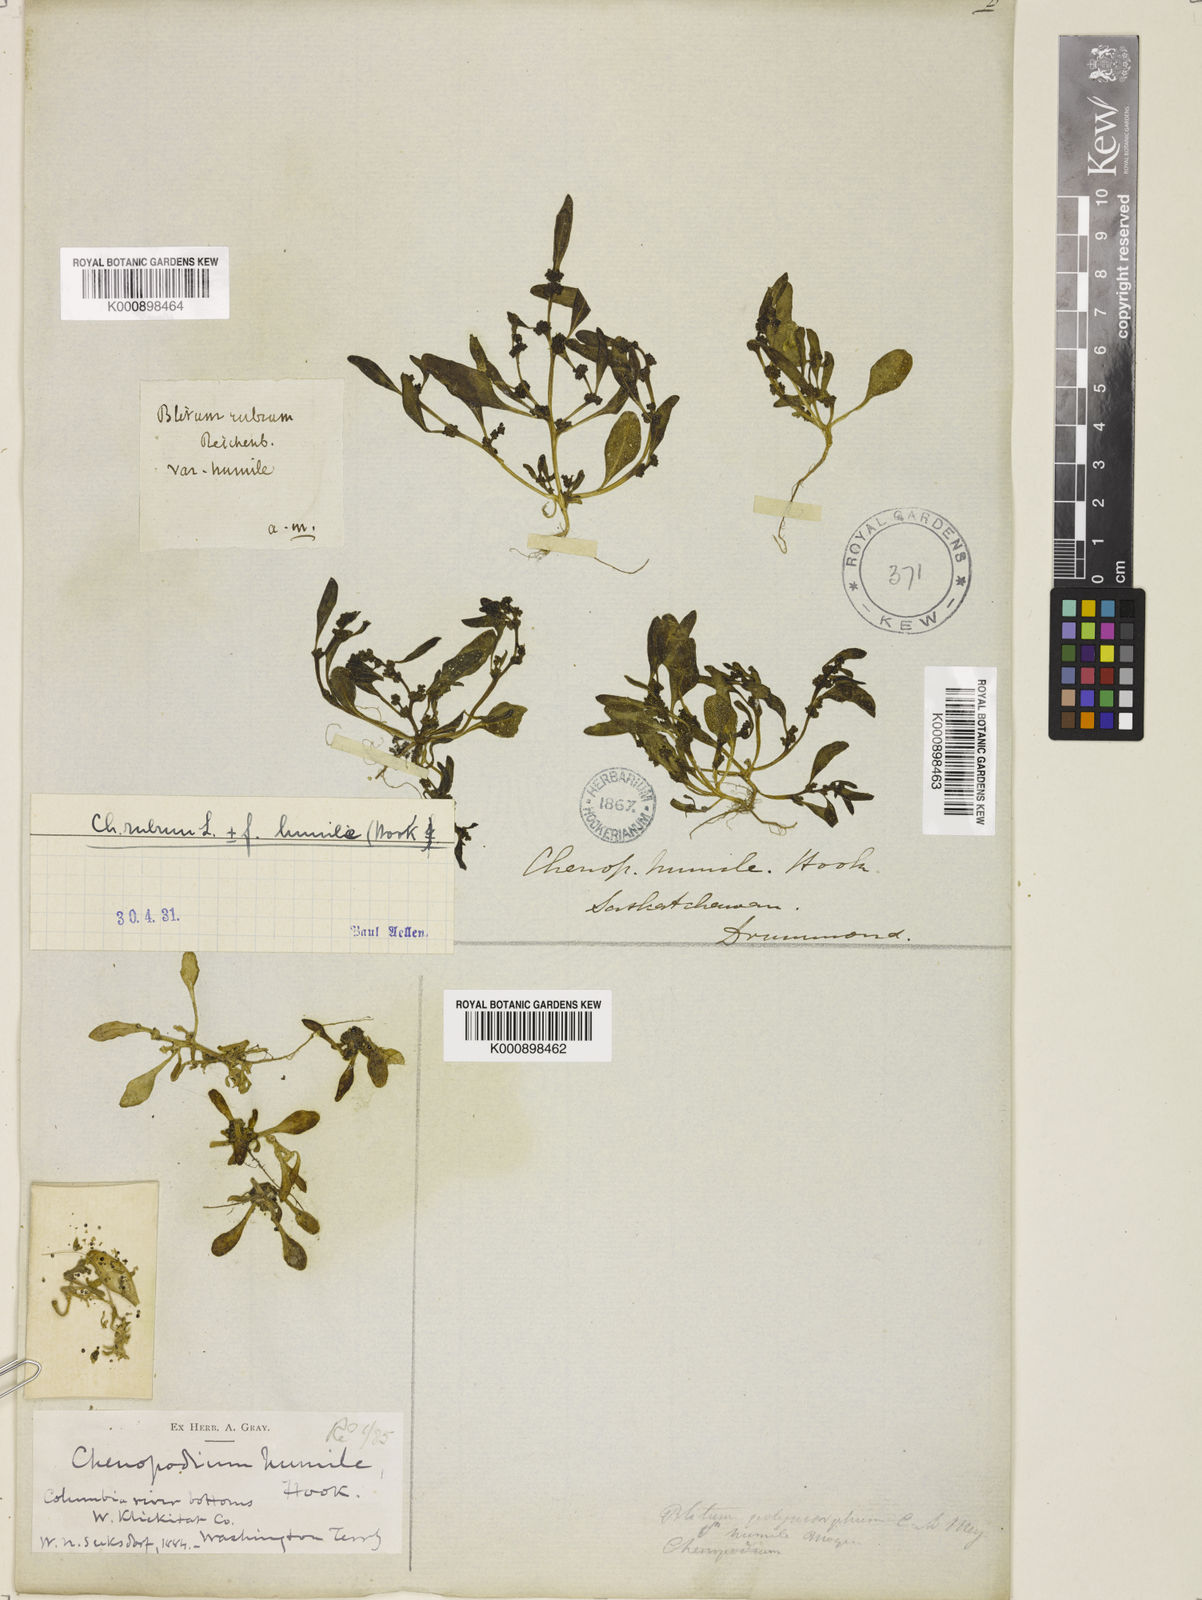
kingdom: Plantae
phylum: Tracheophyta
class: Magnoliopsida
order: Caryophyllales
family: Amaranthaceae
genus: Oxybasis
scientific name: Oxybasis rubra
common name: Red goosefoot
